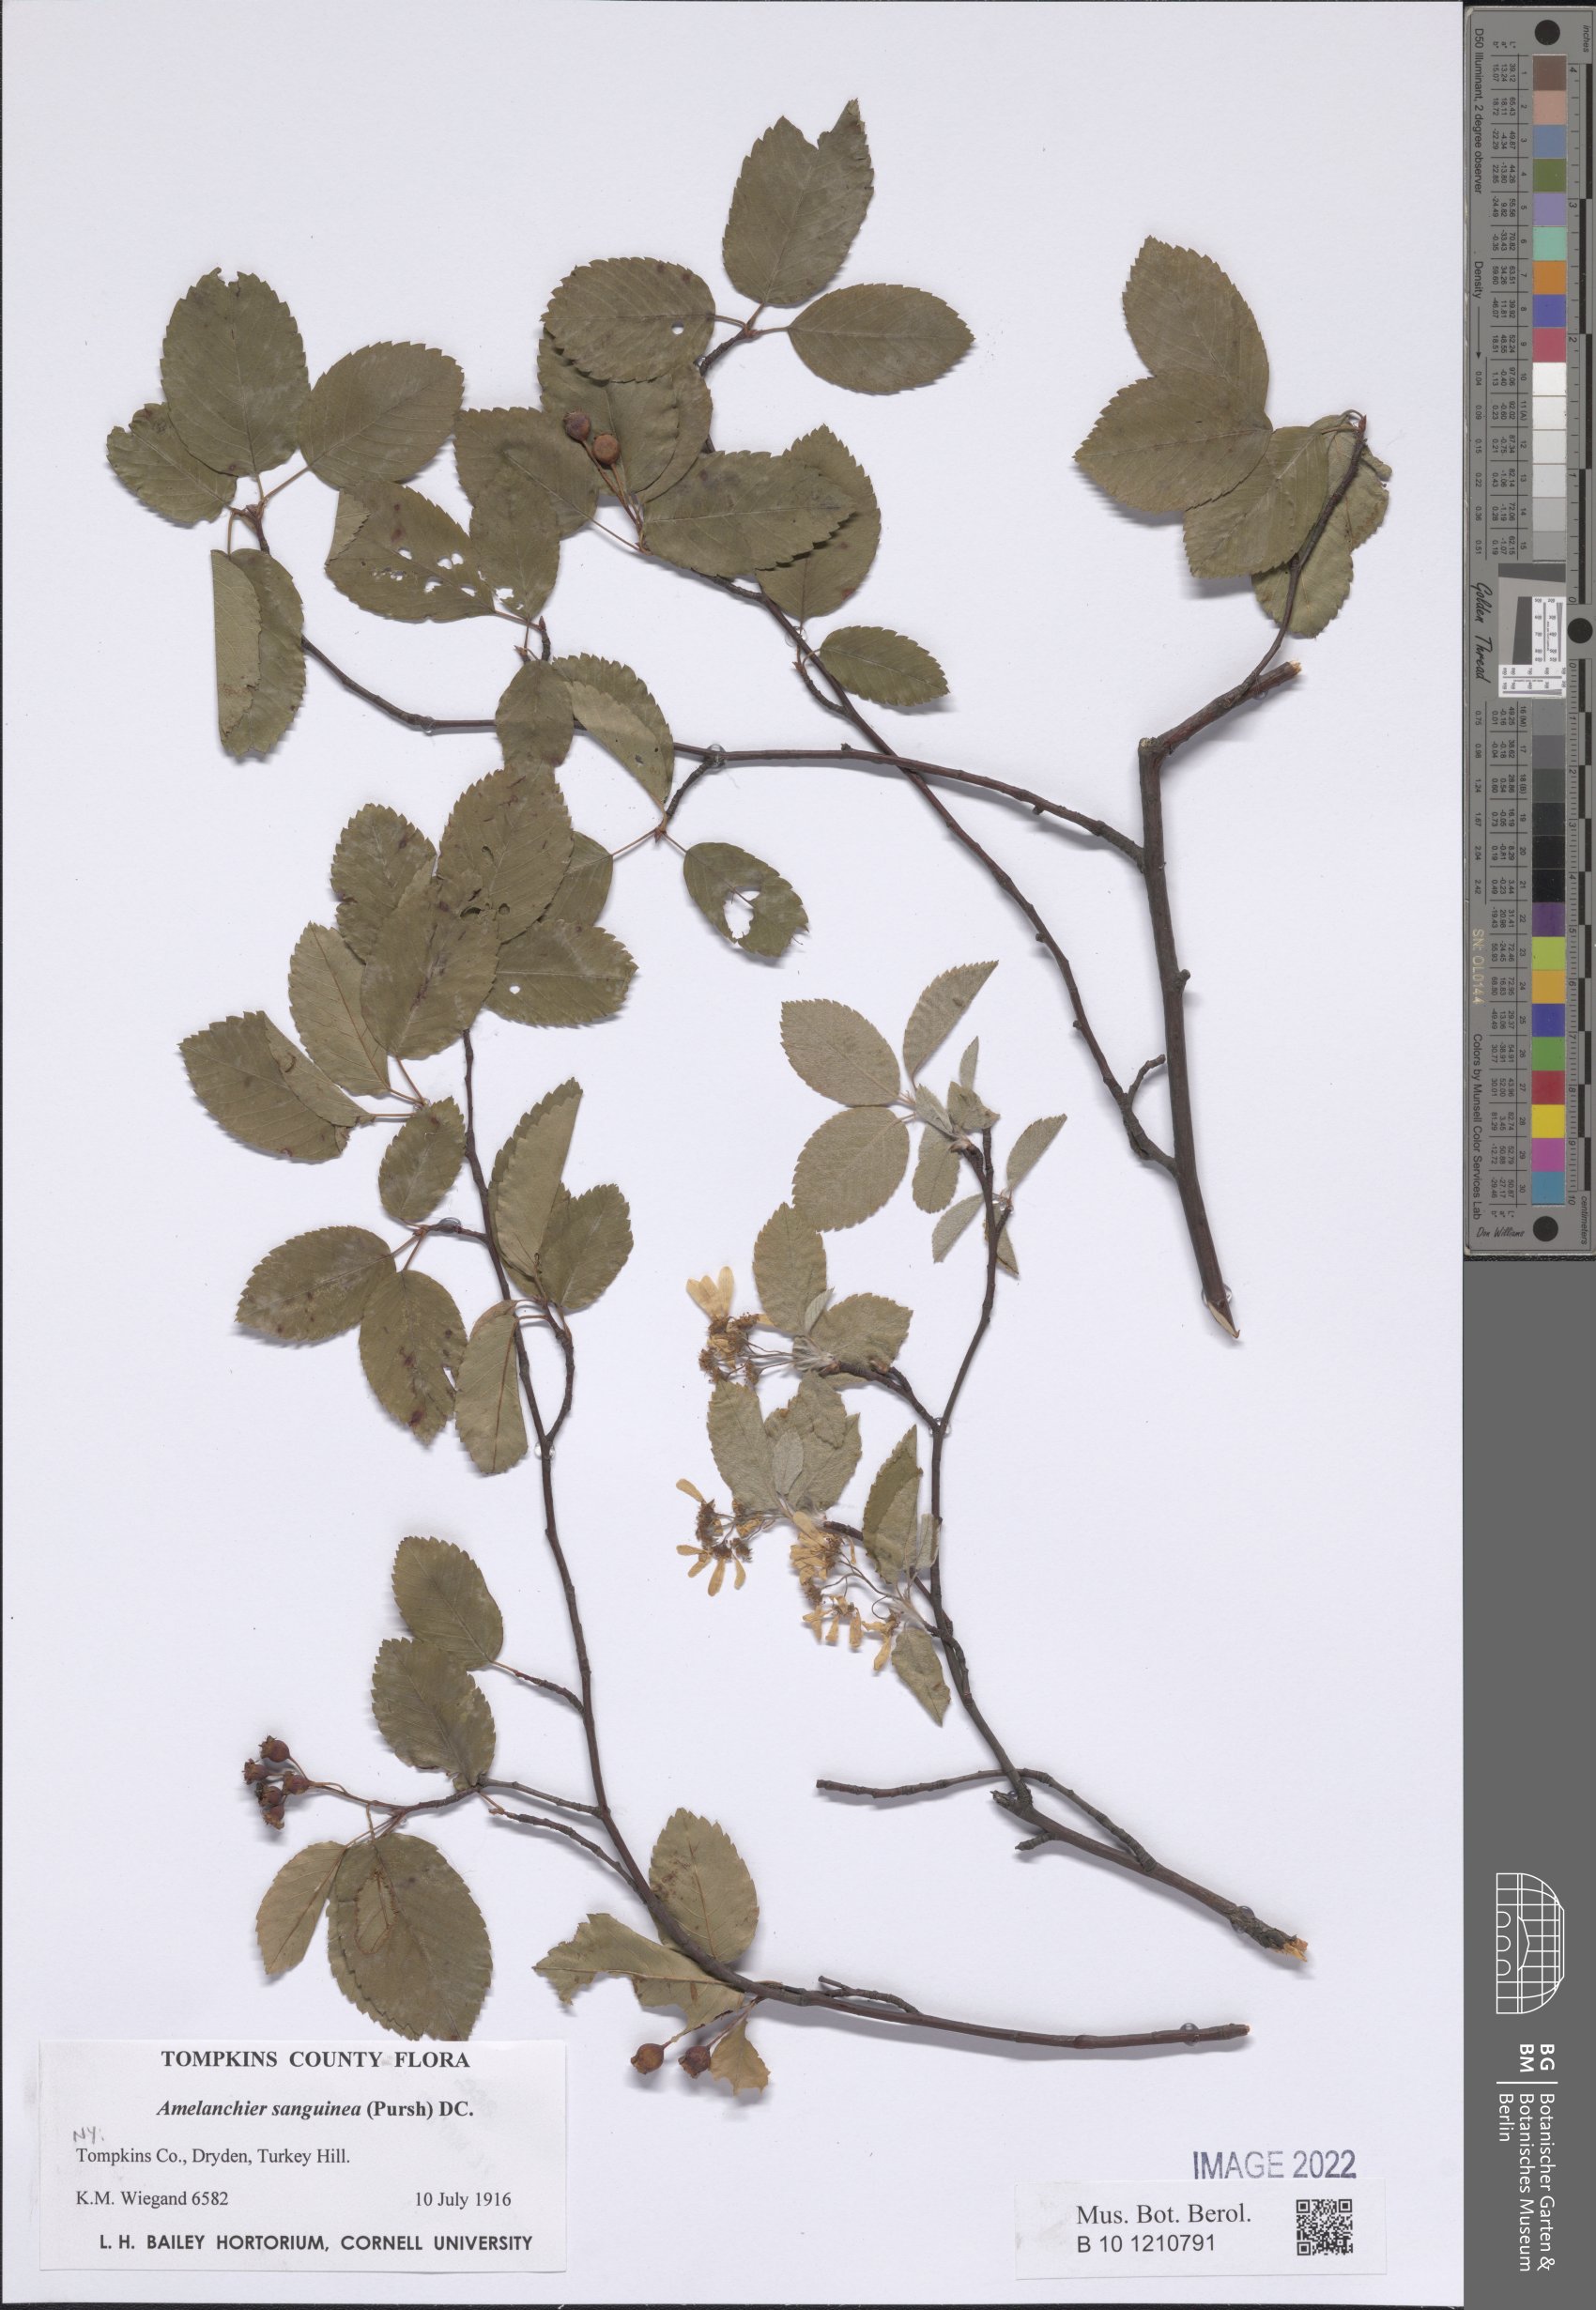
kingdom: Plantae
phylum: Tracheophyta
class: Magnoliopsida
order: Rosales
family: Rosaceae
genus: Amelanchier
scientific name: Amelanchier sanguinea
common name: Huron serviceberry
